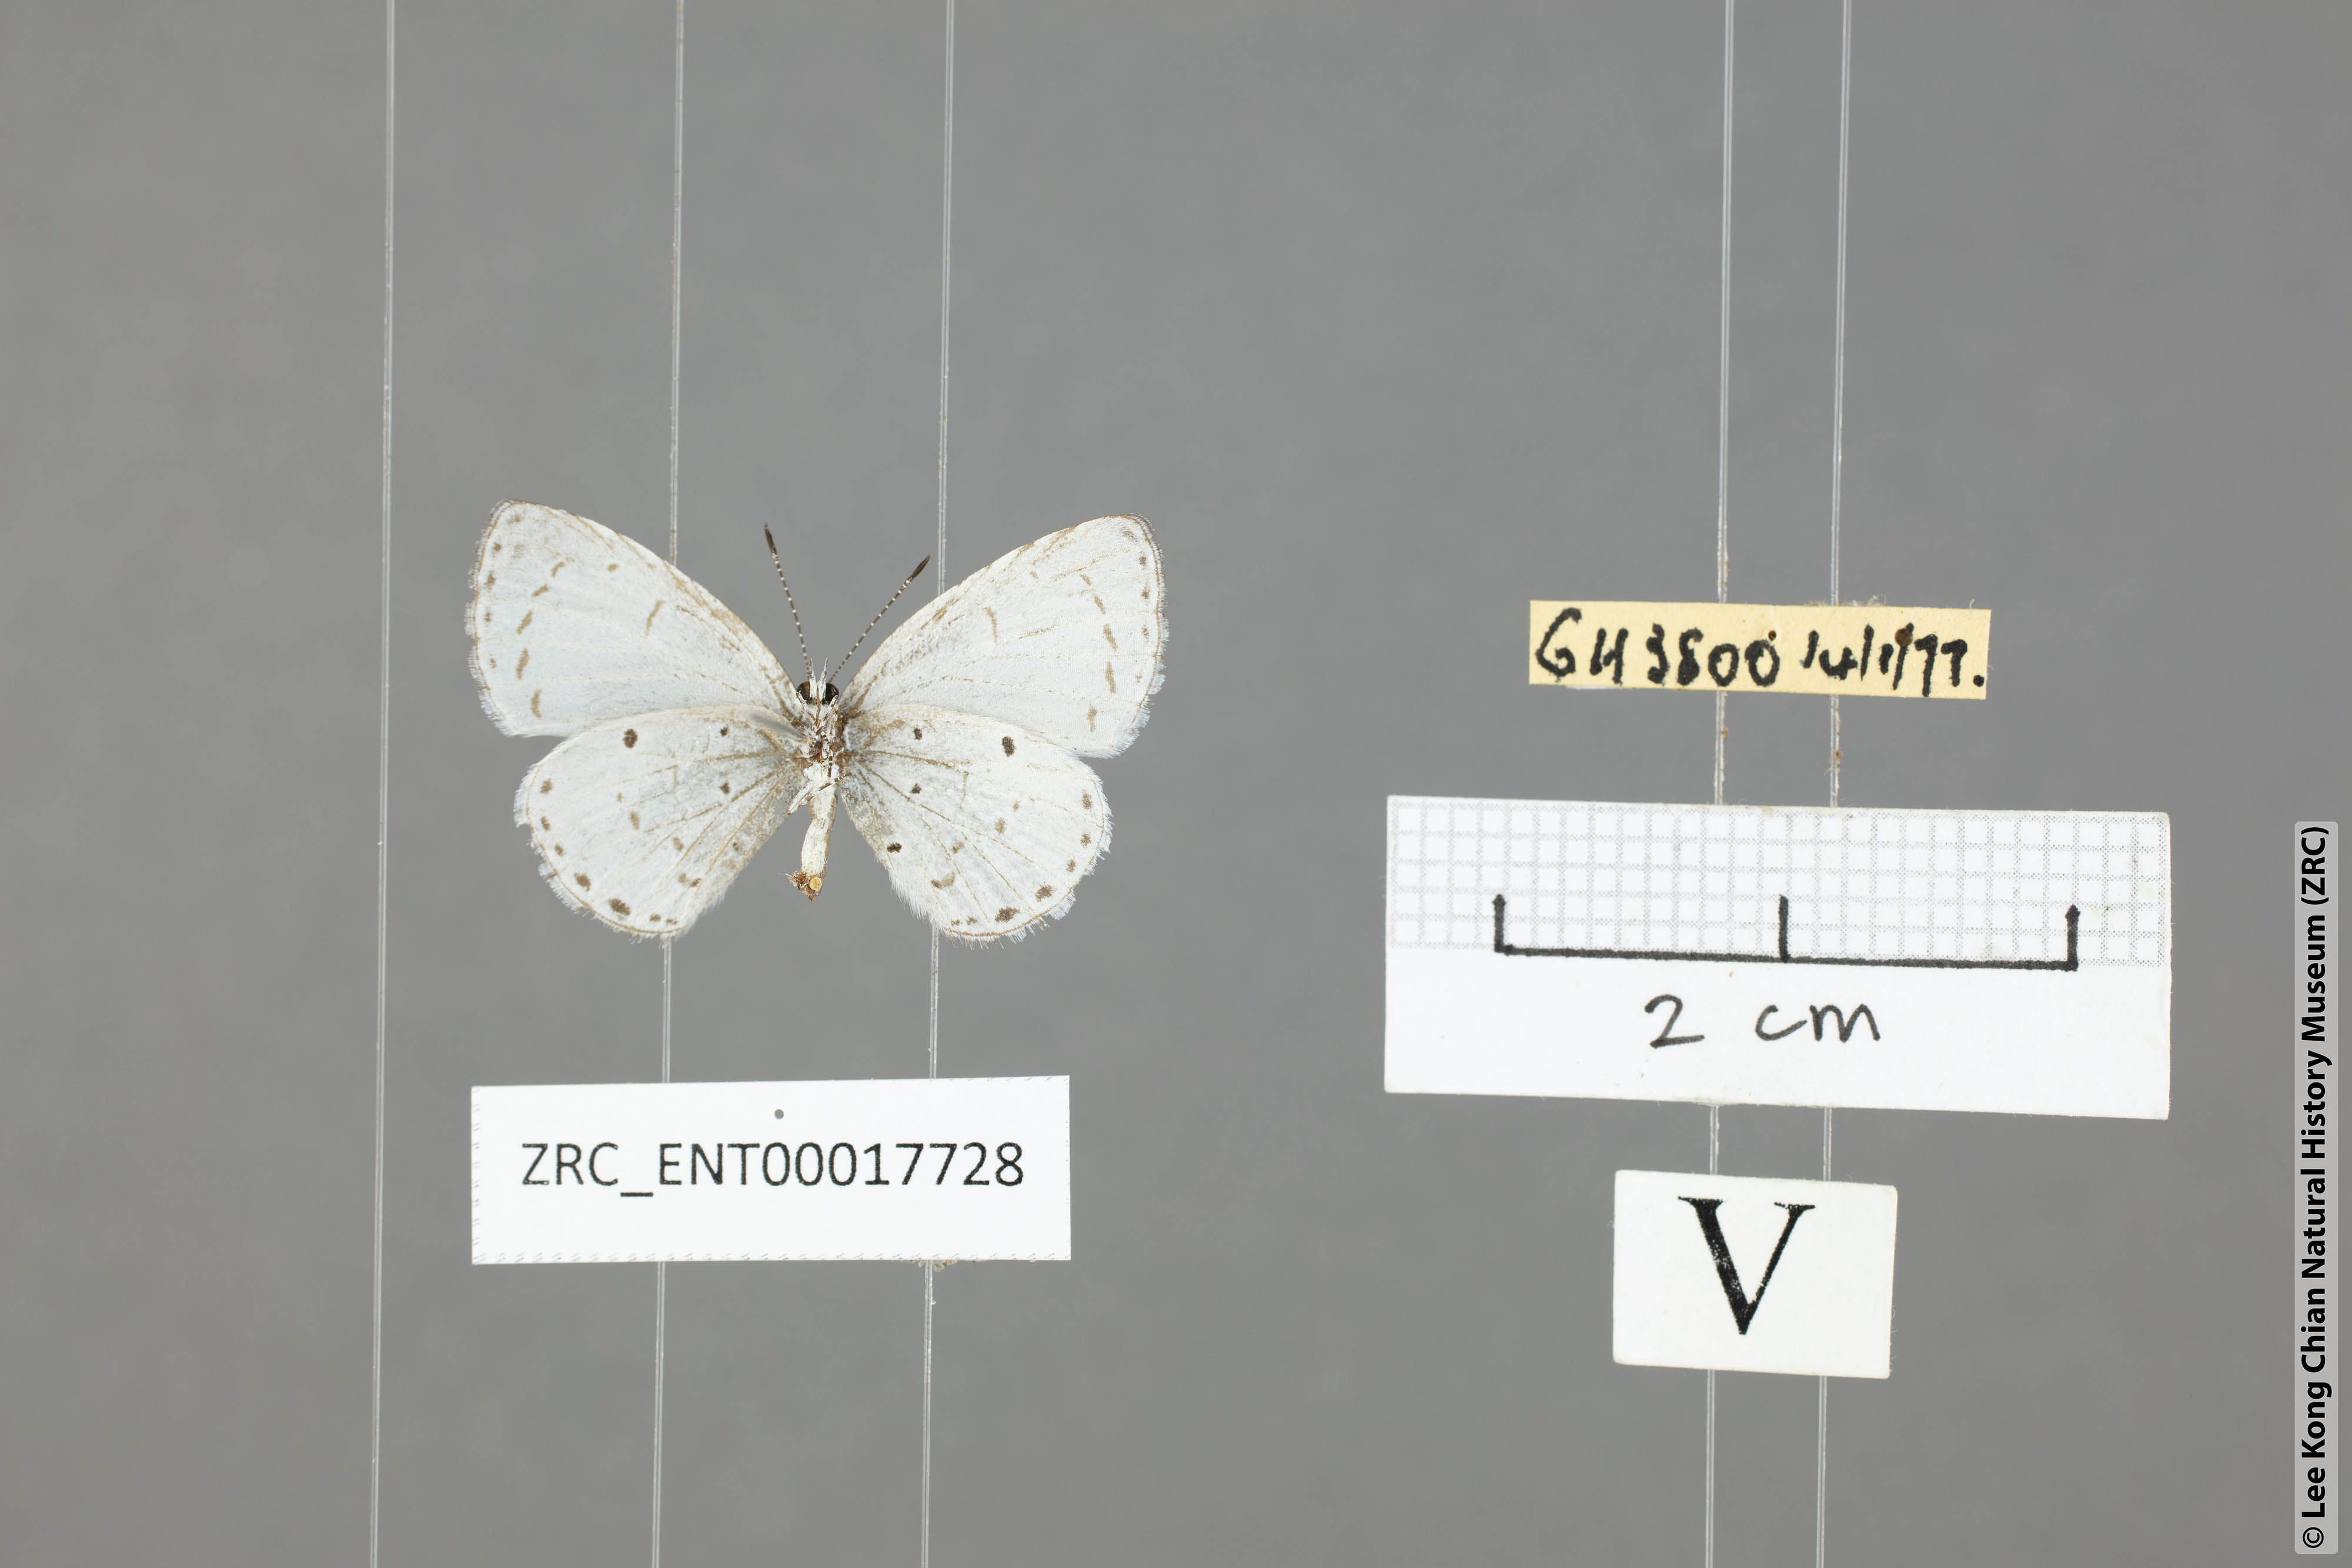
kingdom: Animalia
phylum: Arthropoda
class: Insecta
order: Lepidoptera
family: Lycaenidae
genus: Udara
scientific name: Udara
